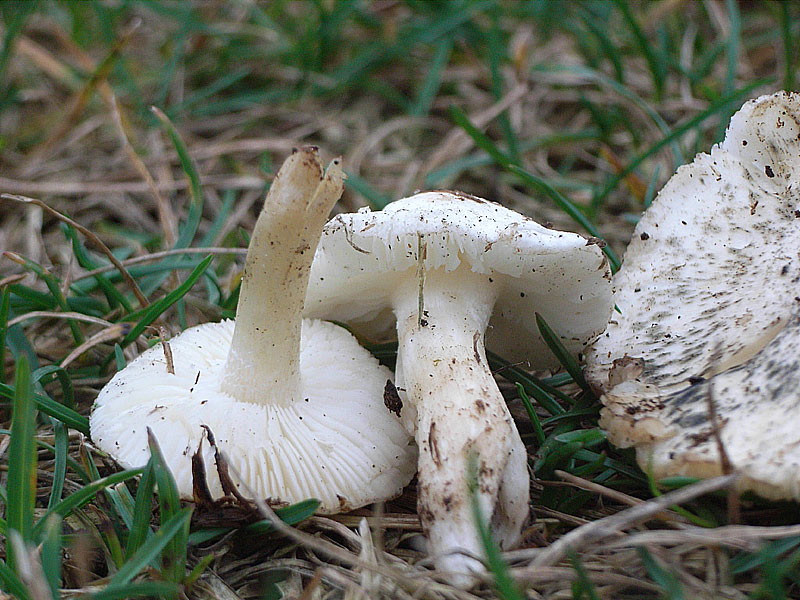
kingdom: Fungi
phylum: Basidiomycota
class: Agaricomycetes
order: Agaricales
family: Lyophyllaceae
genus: Tricholomella
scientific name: Tricholomella constricta
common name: ring-fagerhat
